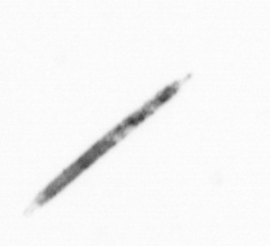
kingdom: Chromista
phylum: Ochrophyta
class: Bacillariophyceae
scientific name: Bacillariophyceae
